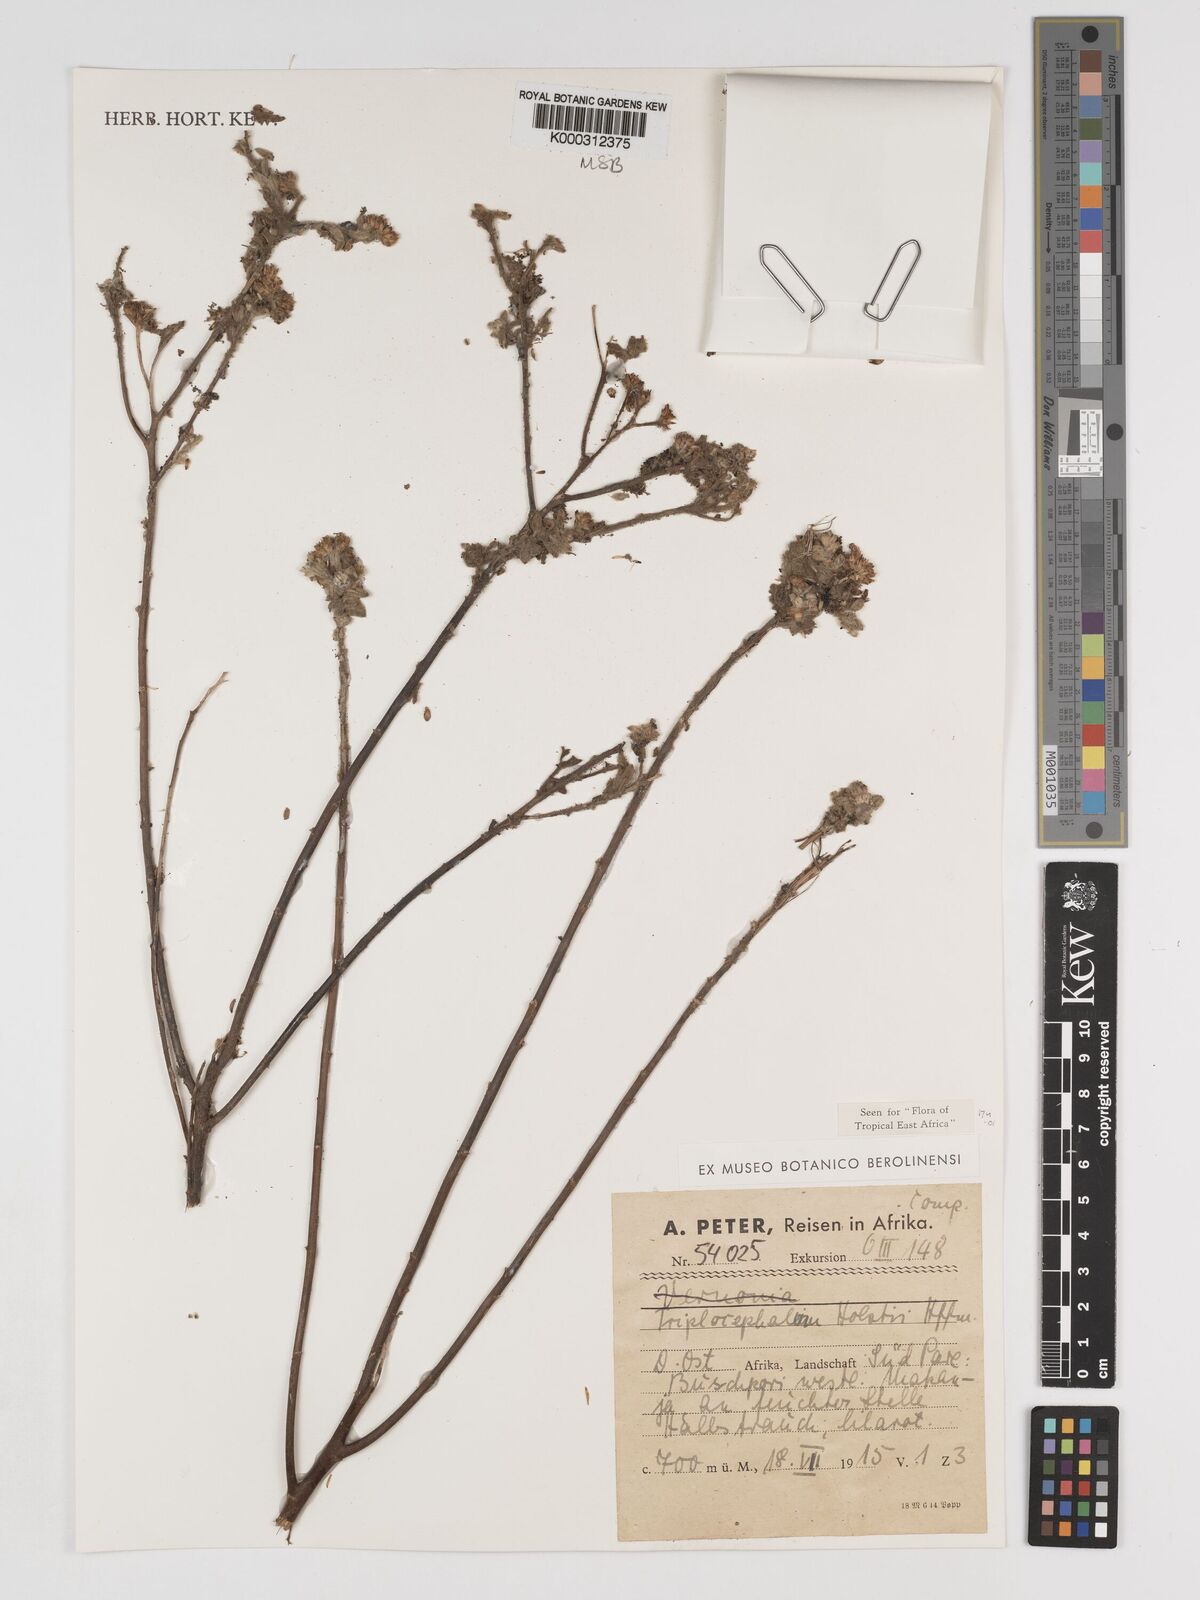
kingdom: Plantae
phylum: Tracheophyta
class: Magnoliopsida
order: Asterales
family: Asteraceae
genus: Triplocephalum
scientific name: Triplocephalum holstii
